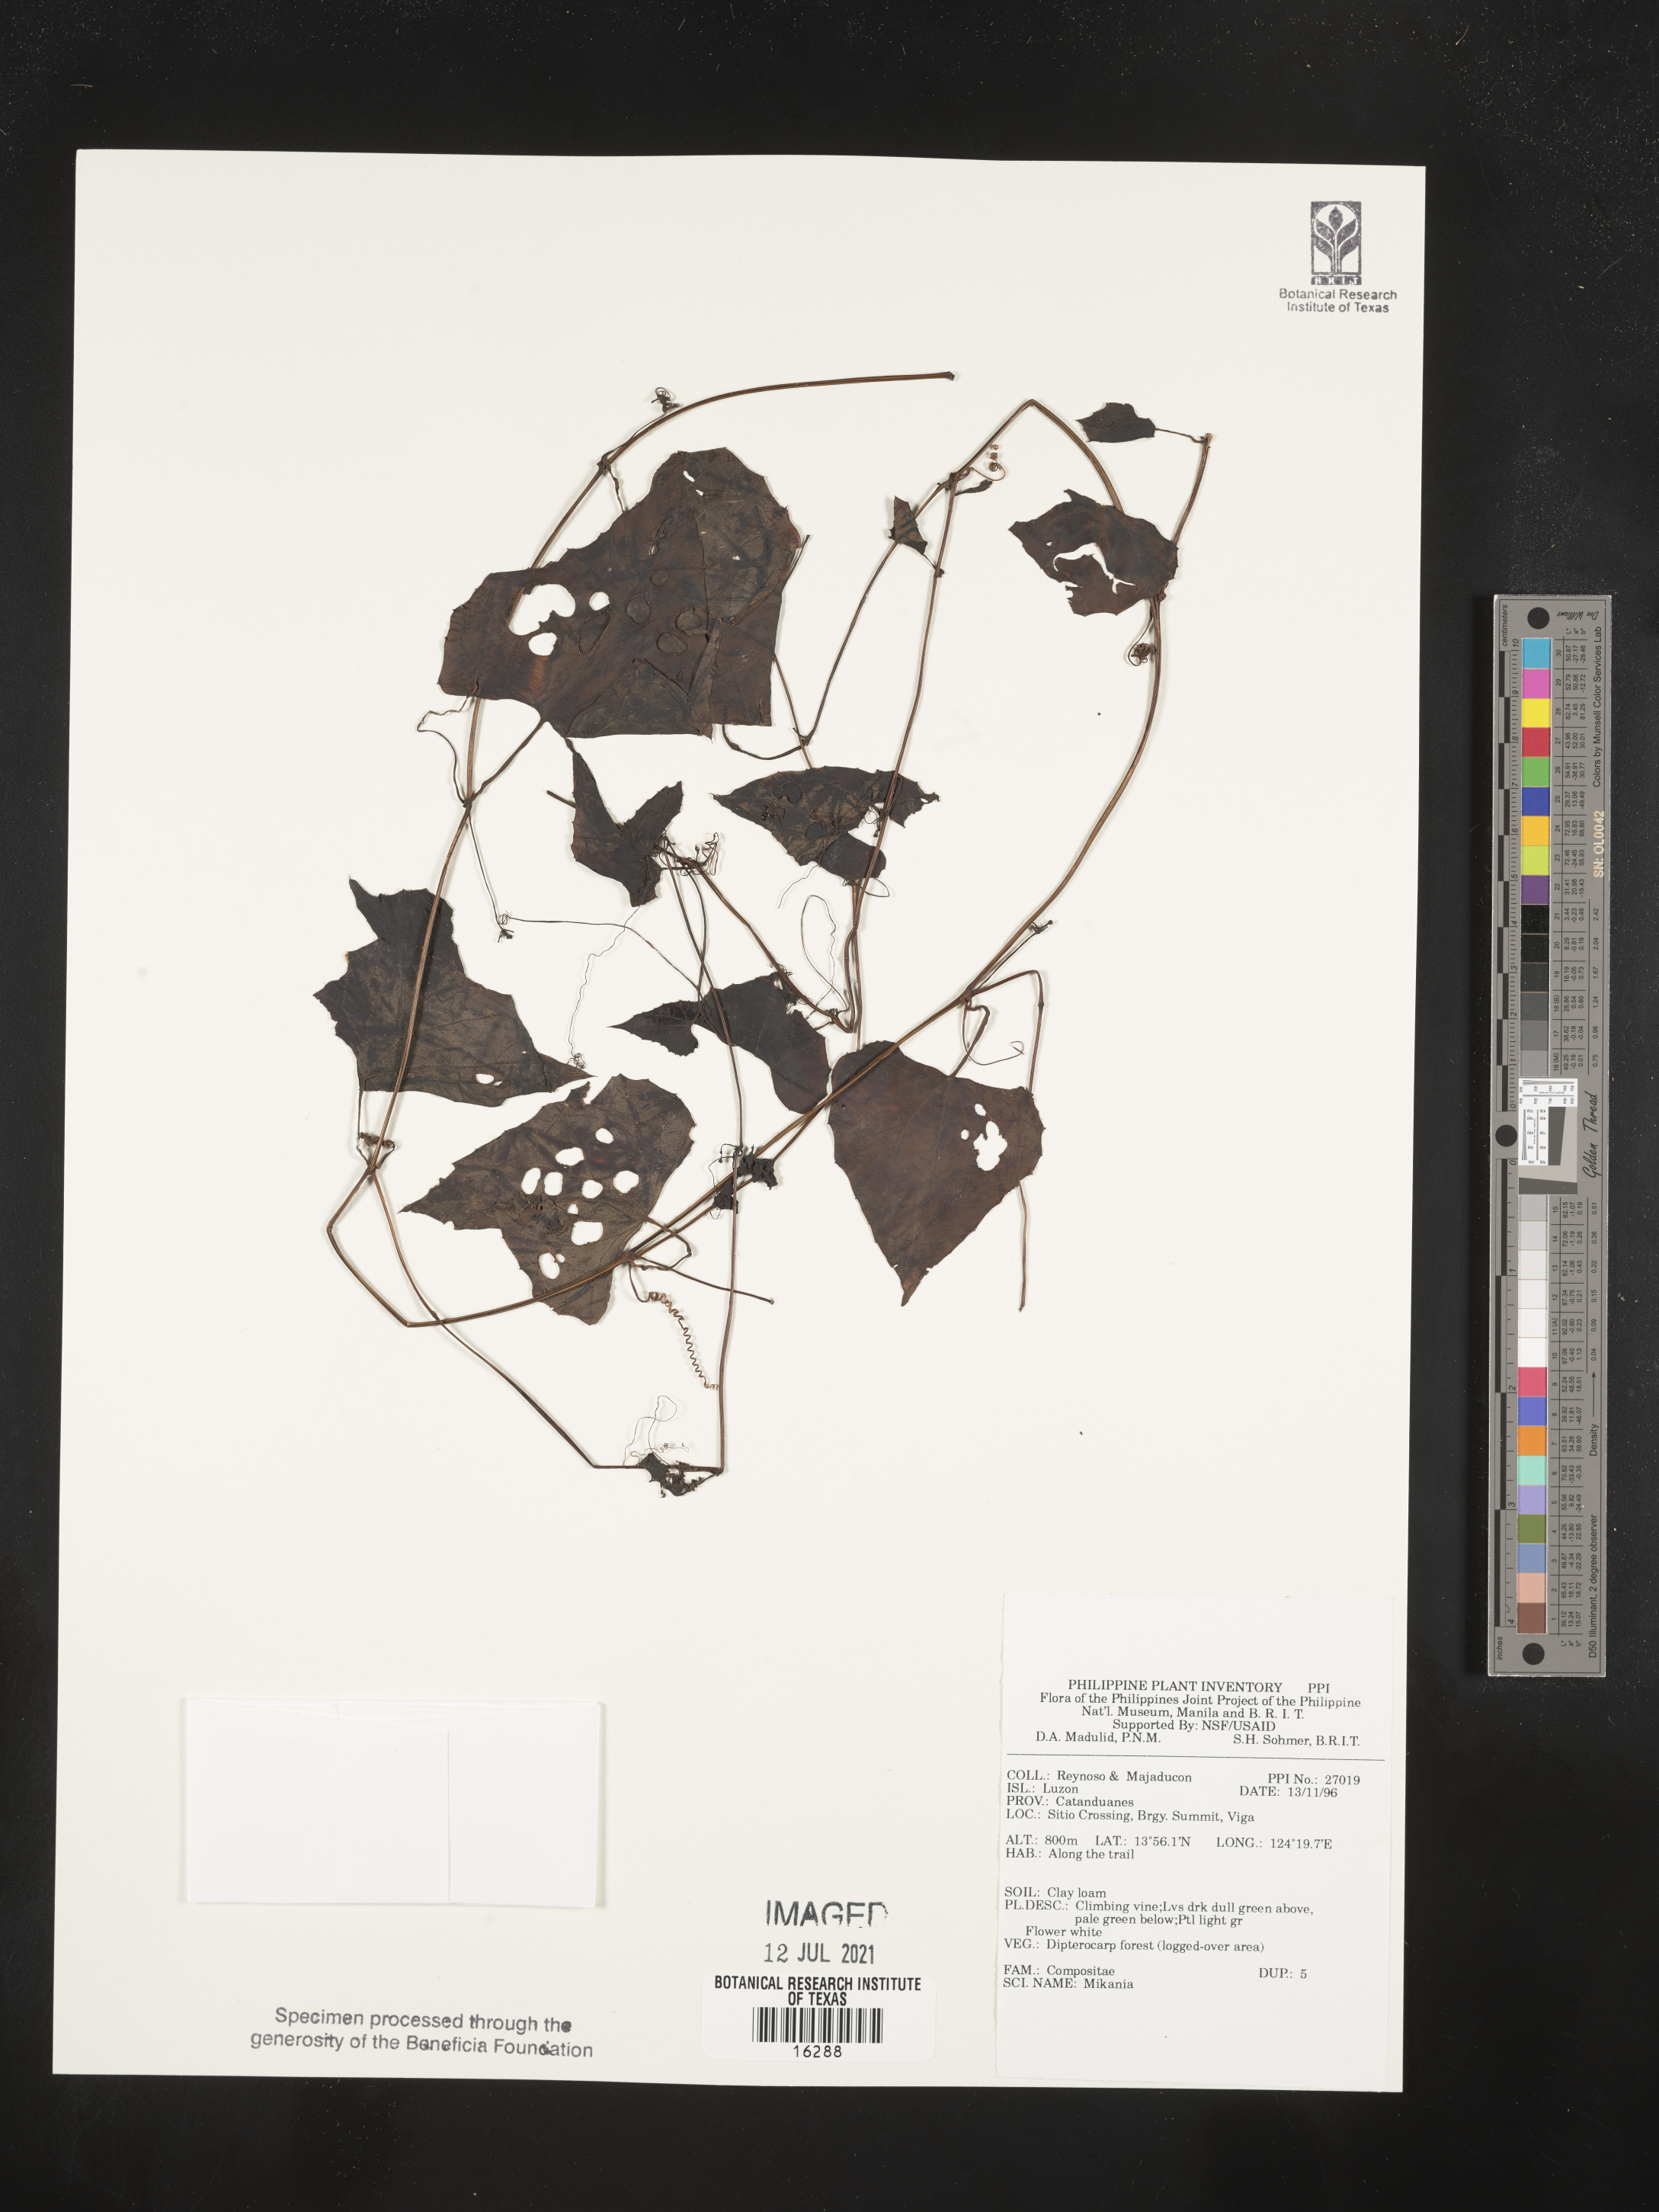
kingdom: Plantae
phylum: Tracheophyta
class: Magnoliopsida
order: Asterales
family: Asteraceae
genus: Mikania
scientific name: Mikania
